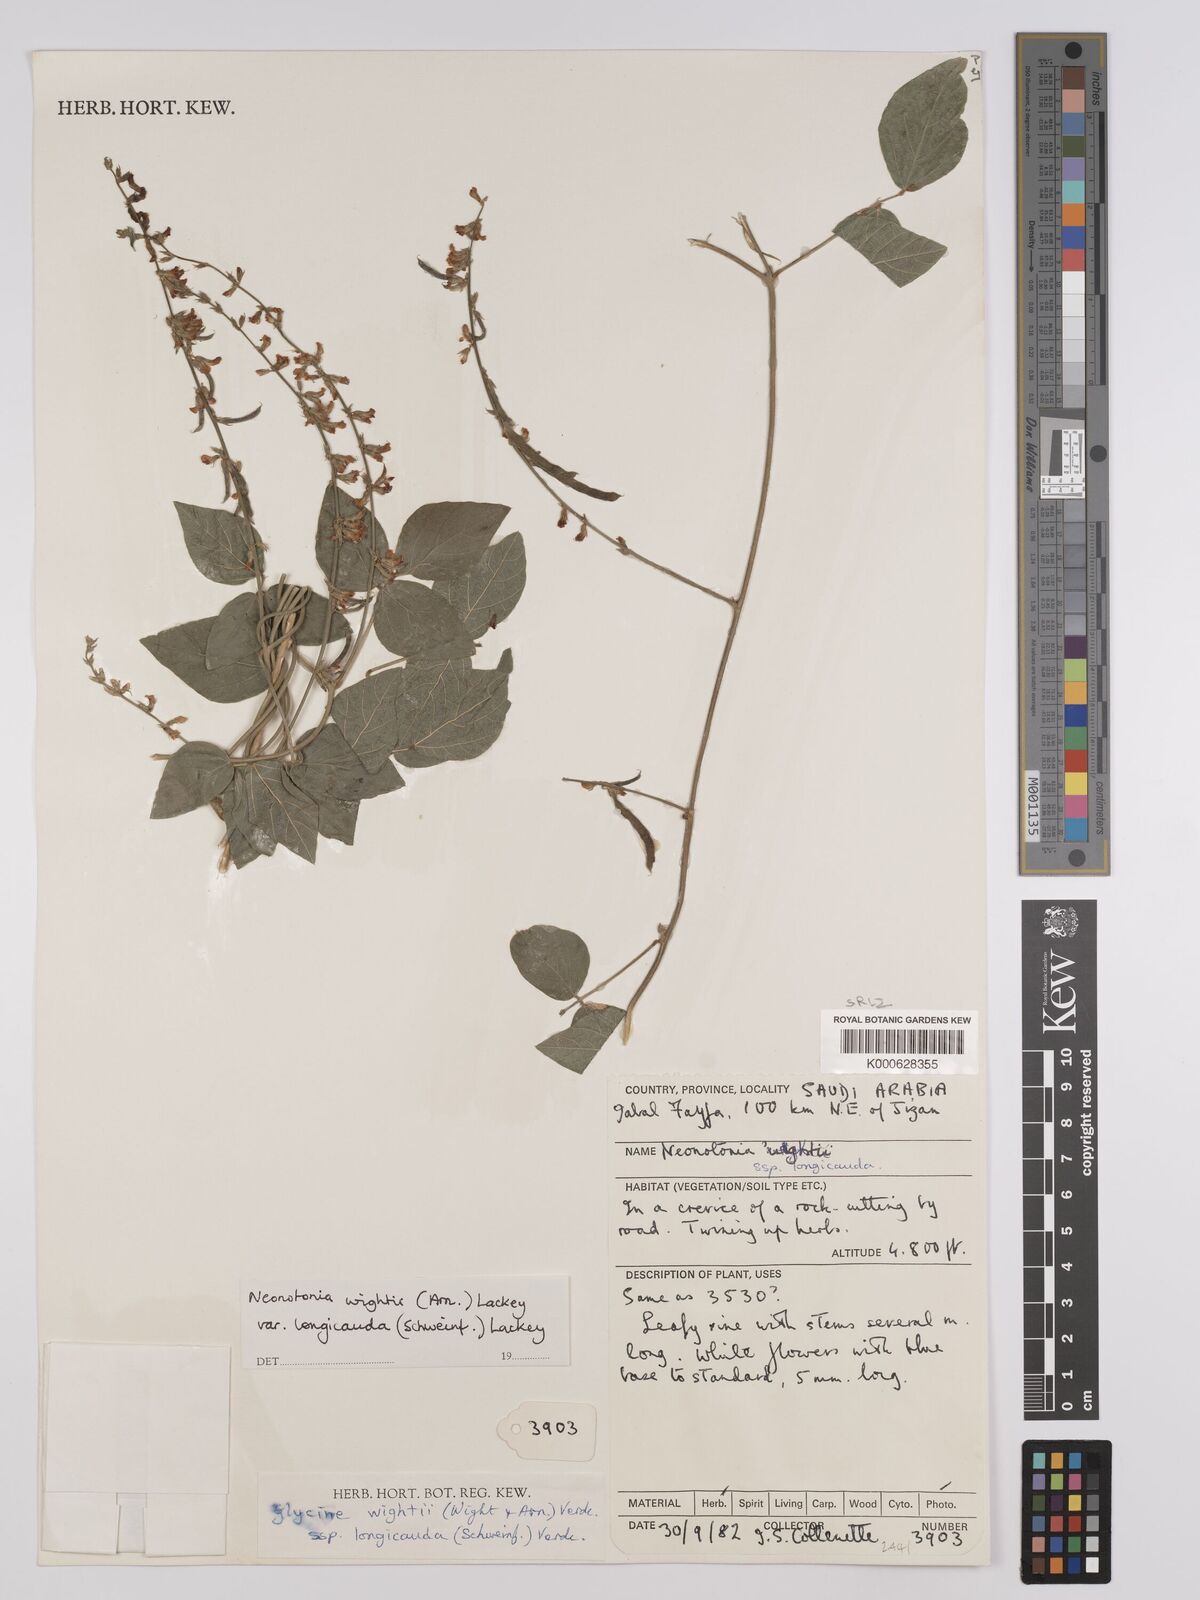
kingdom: Plantae
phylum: Tracheophyta
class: Magnoliopsida
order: Fabales
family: Fabaceae
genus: Neonotonia
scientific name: Neonotonia wightii
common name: Perennial soybean
